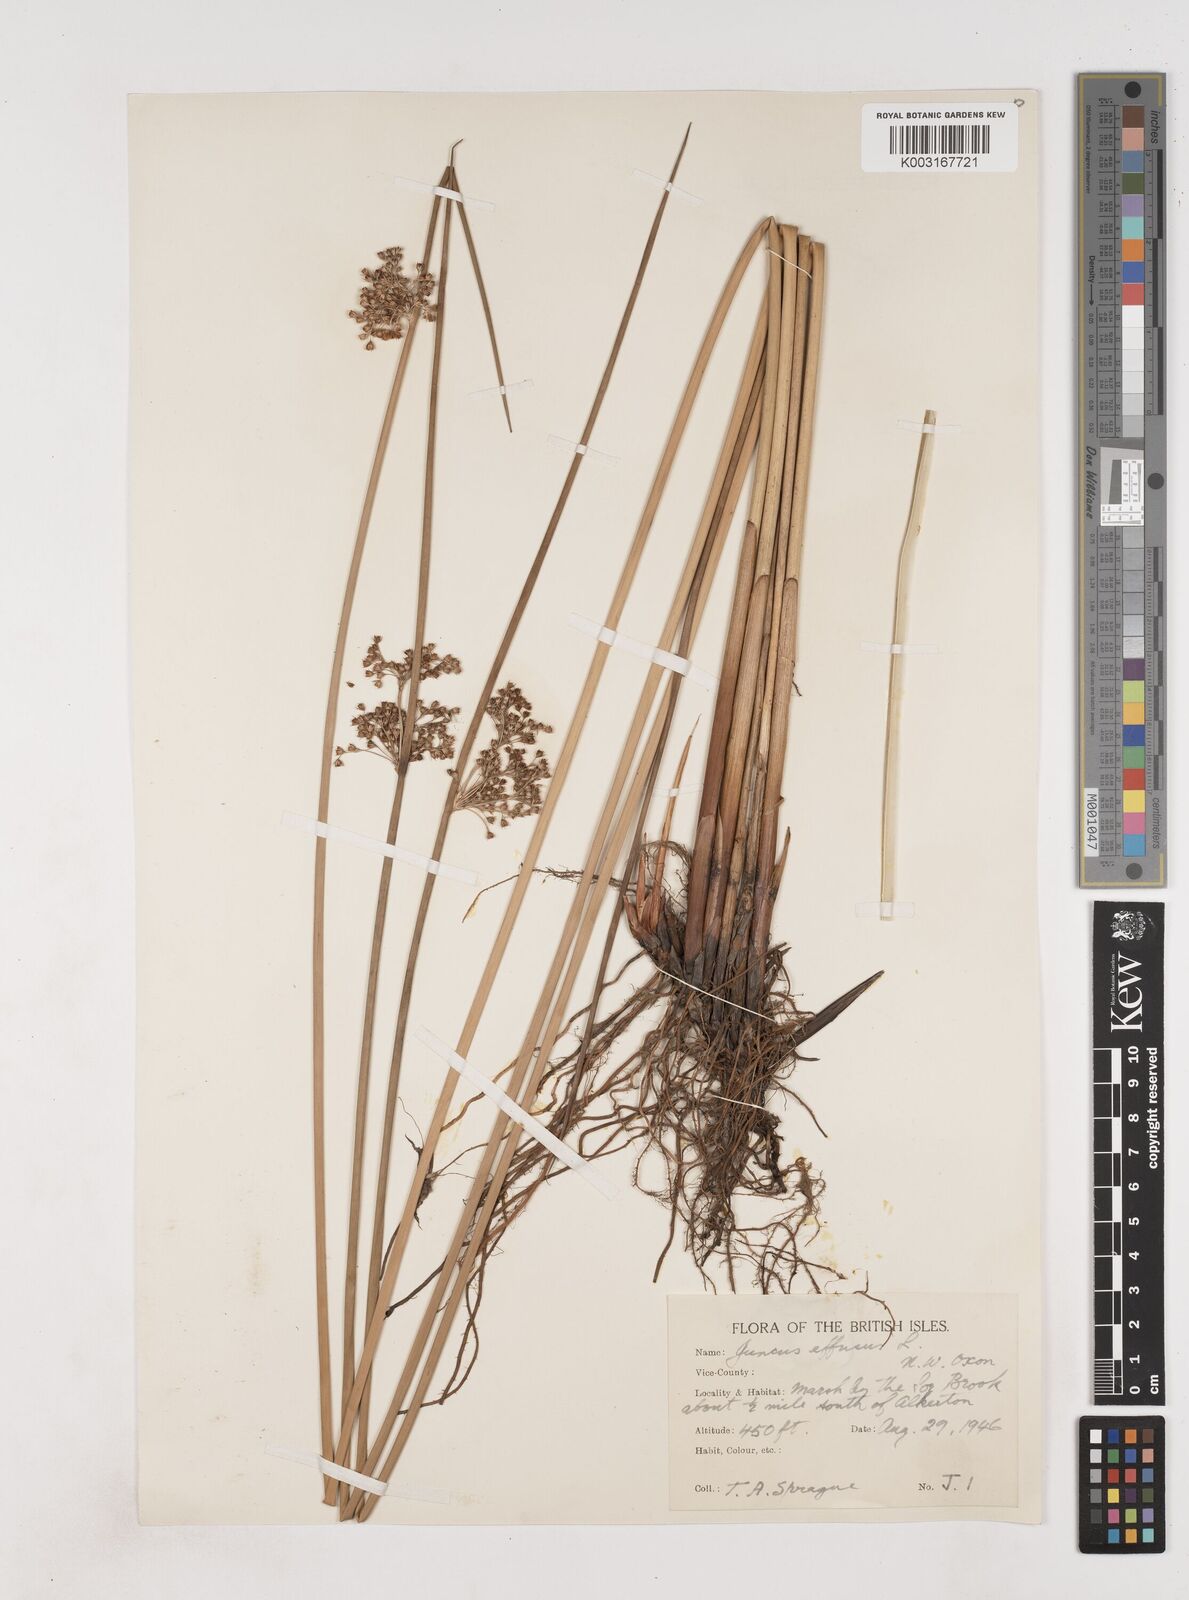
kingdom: Plantae
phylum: Tracheophyta
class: Liliopsida
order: Poales
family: Juncaceae
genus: Juncus
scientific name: Juncus effusus
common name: Soft rush
